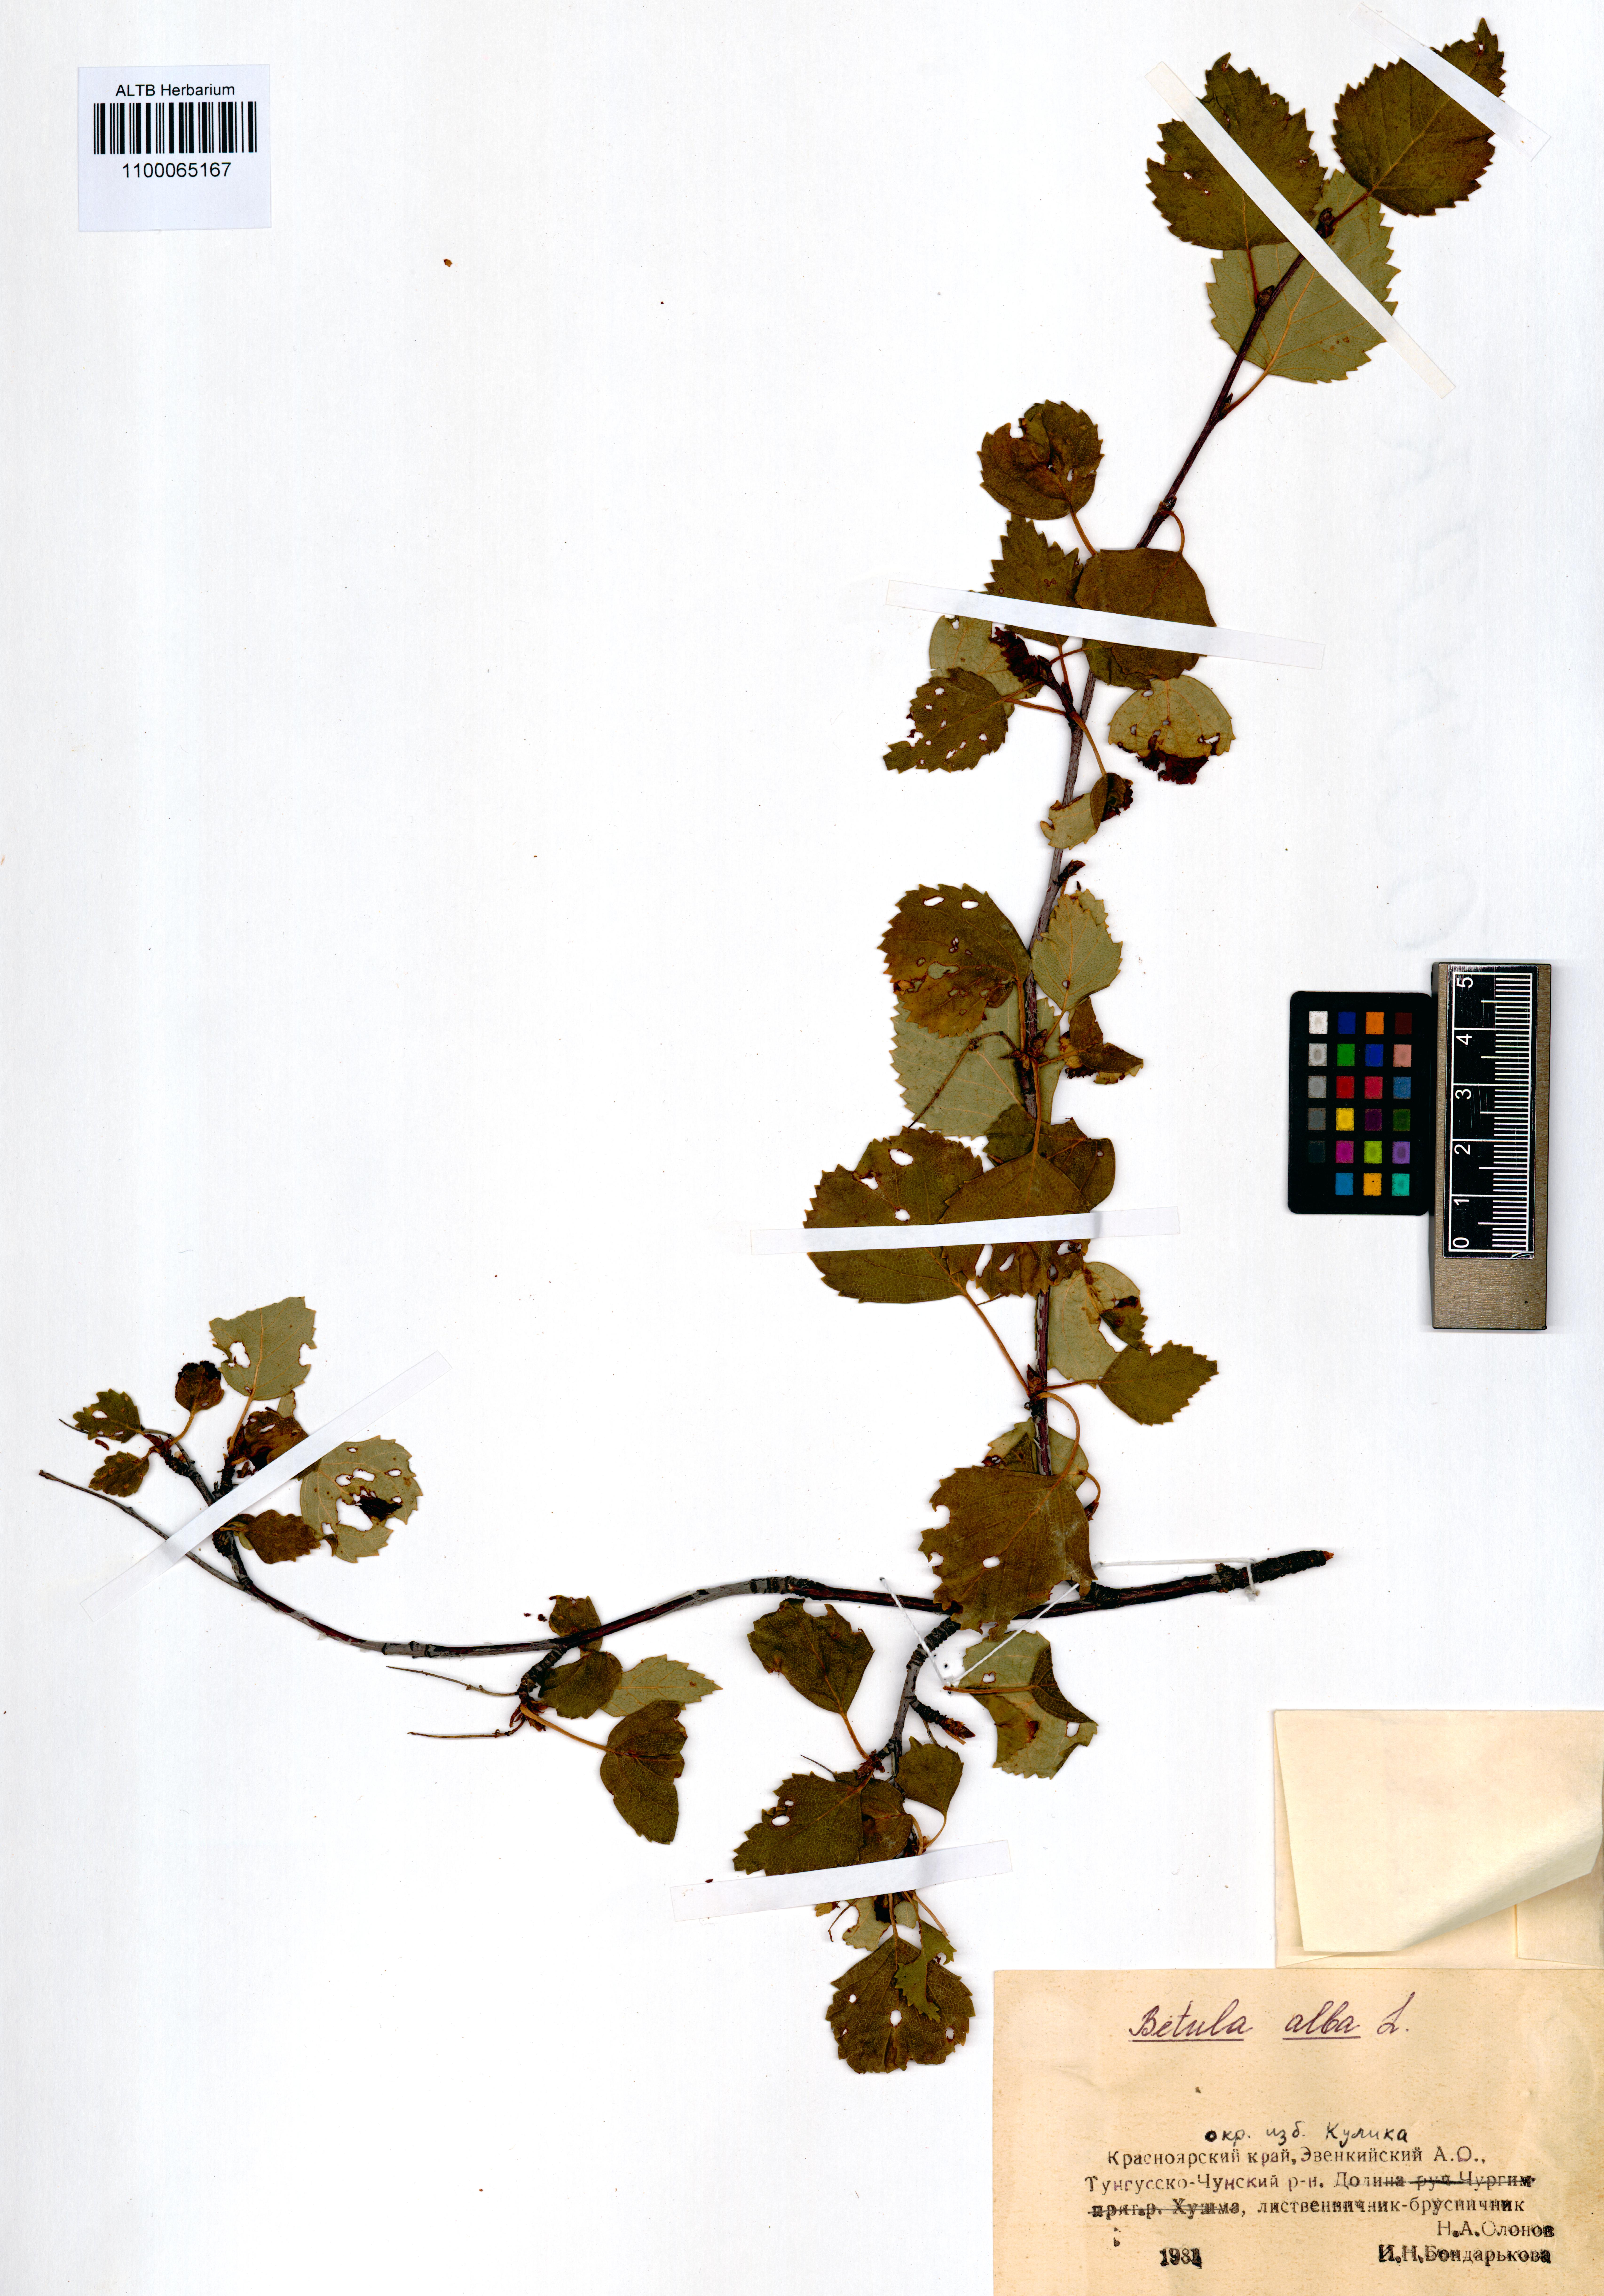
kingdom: Plantae
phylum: Tracheophyta
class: Magnoliopsida
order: Fagales
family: Betulaceae
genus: Betula
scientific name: Betula pubescens
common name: Downy birch
